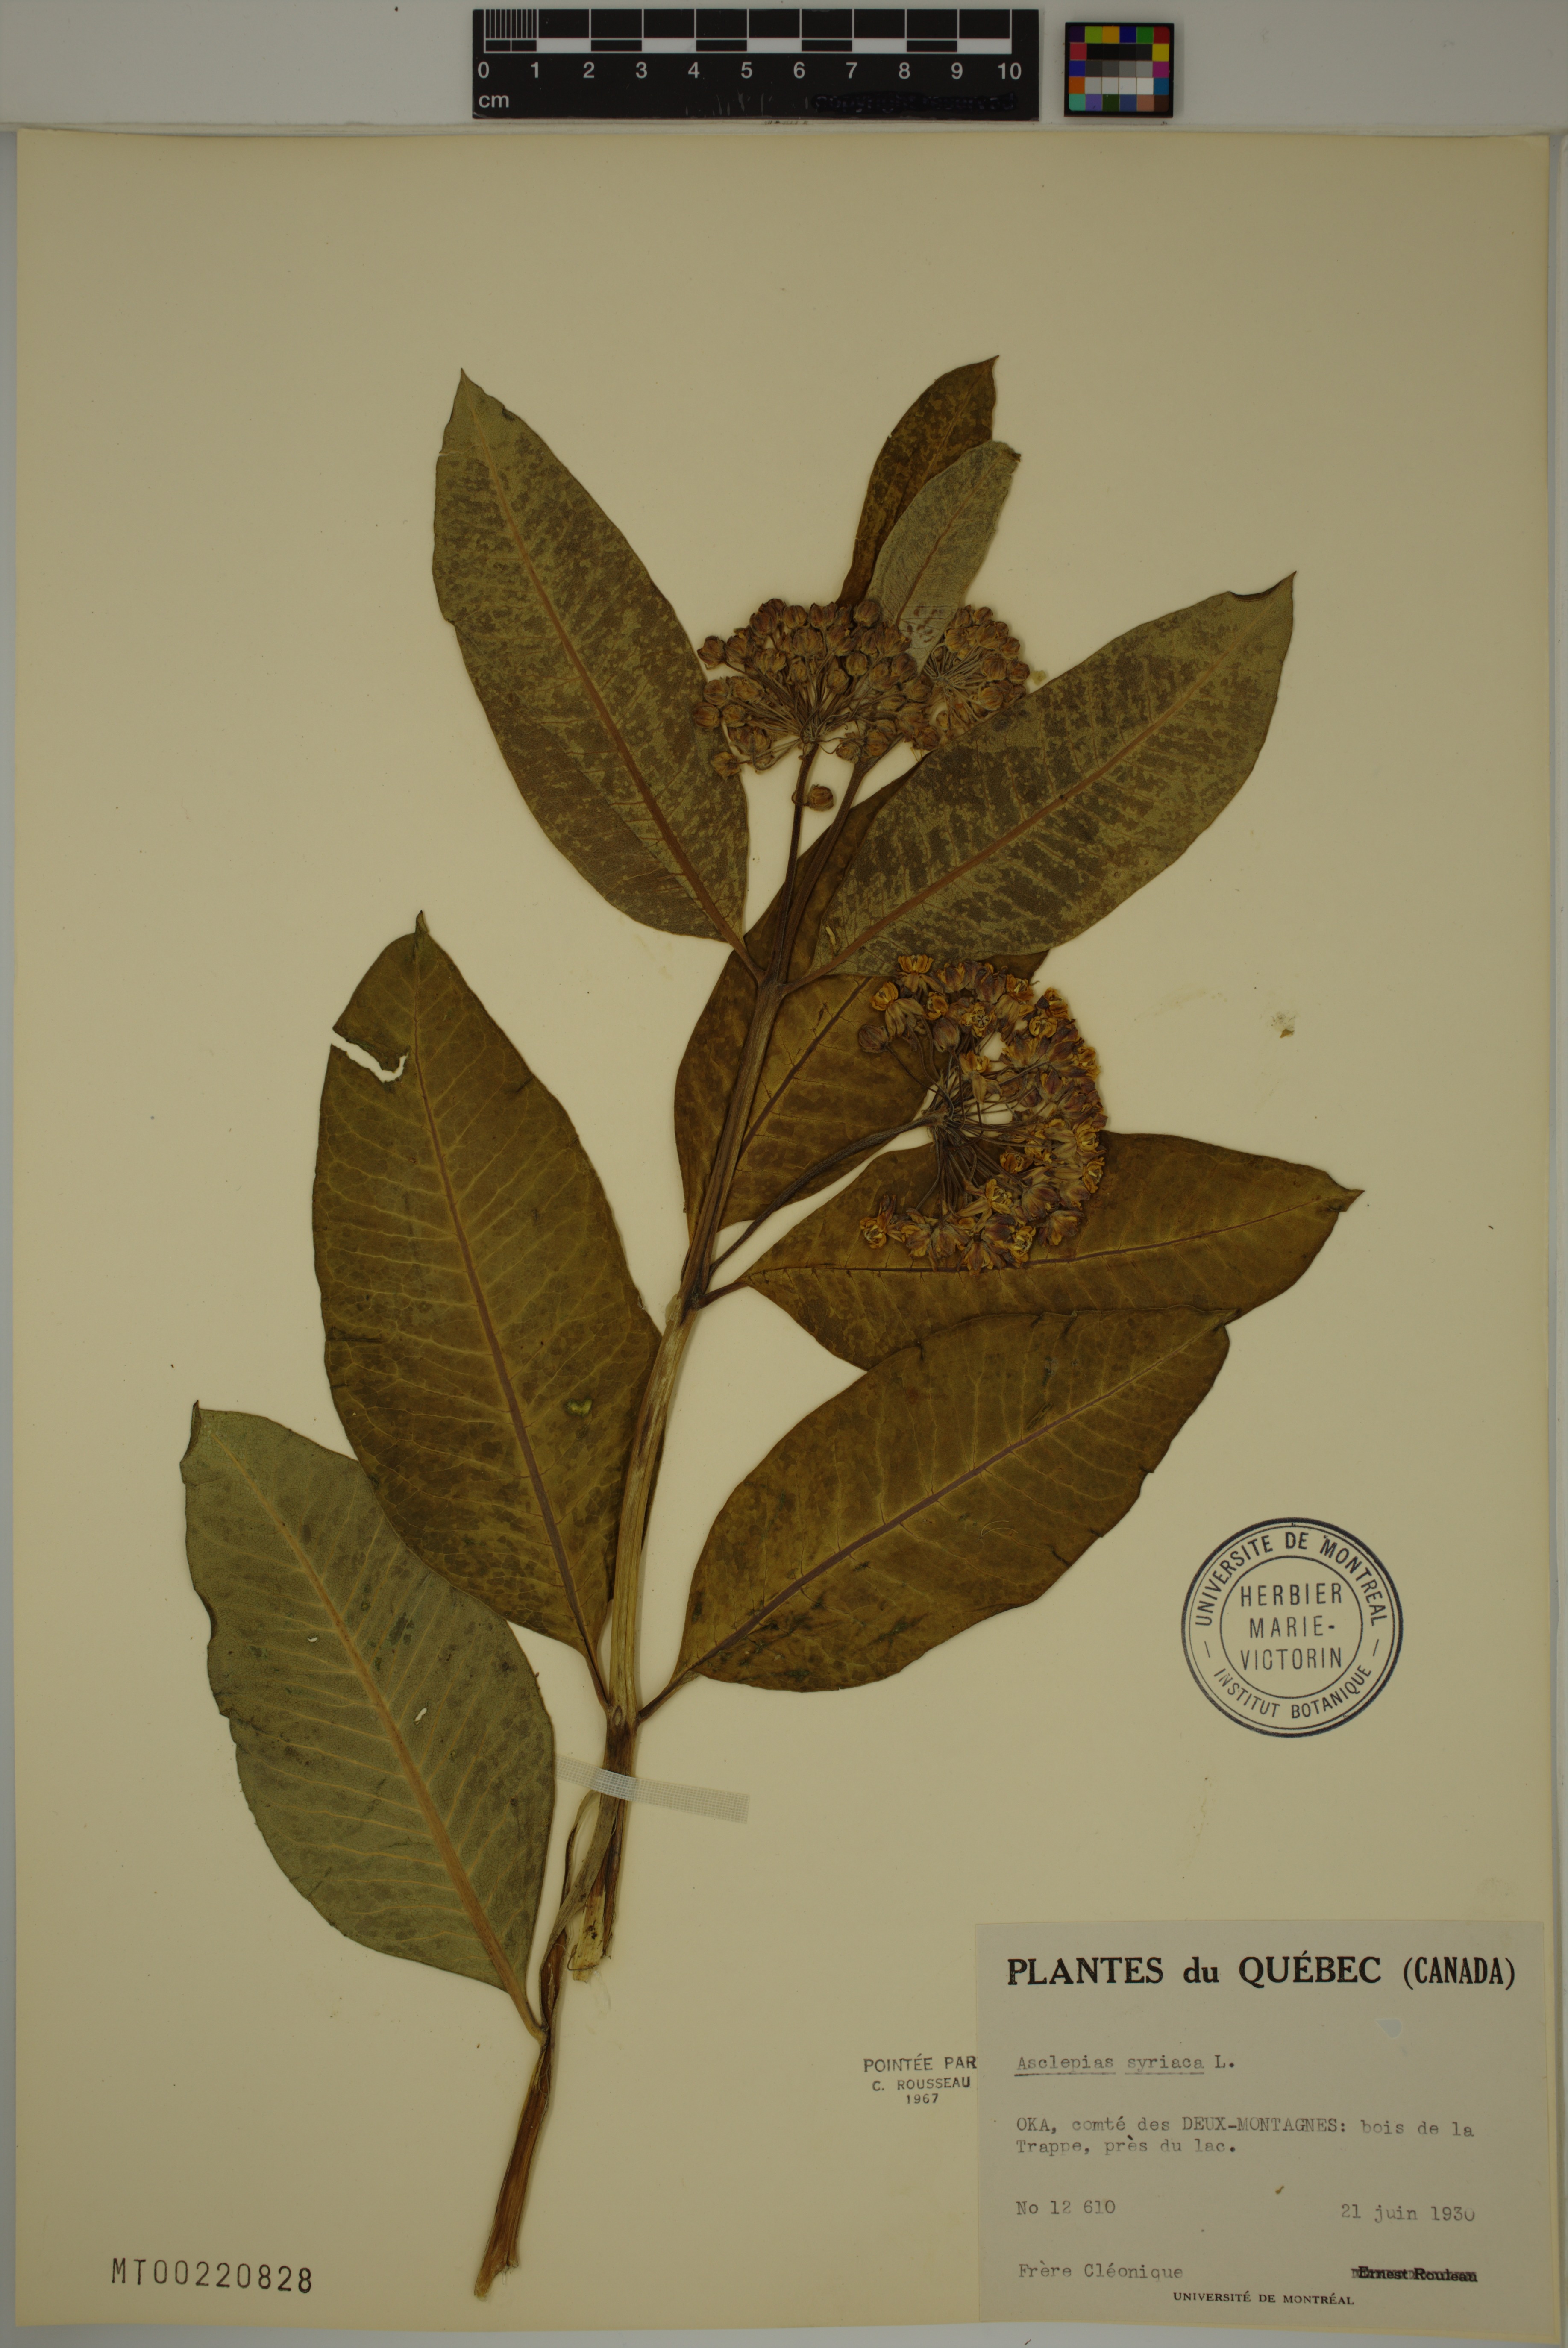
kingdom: Plantae
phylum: Tracheophyta
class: Magnoliopsida
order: Gentianales
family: Apocynaceae
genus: Asclepias
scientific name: Asclepias syriaca
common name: Common milkweed
